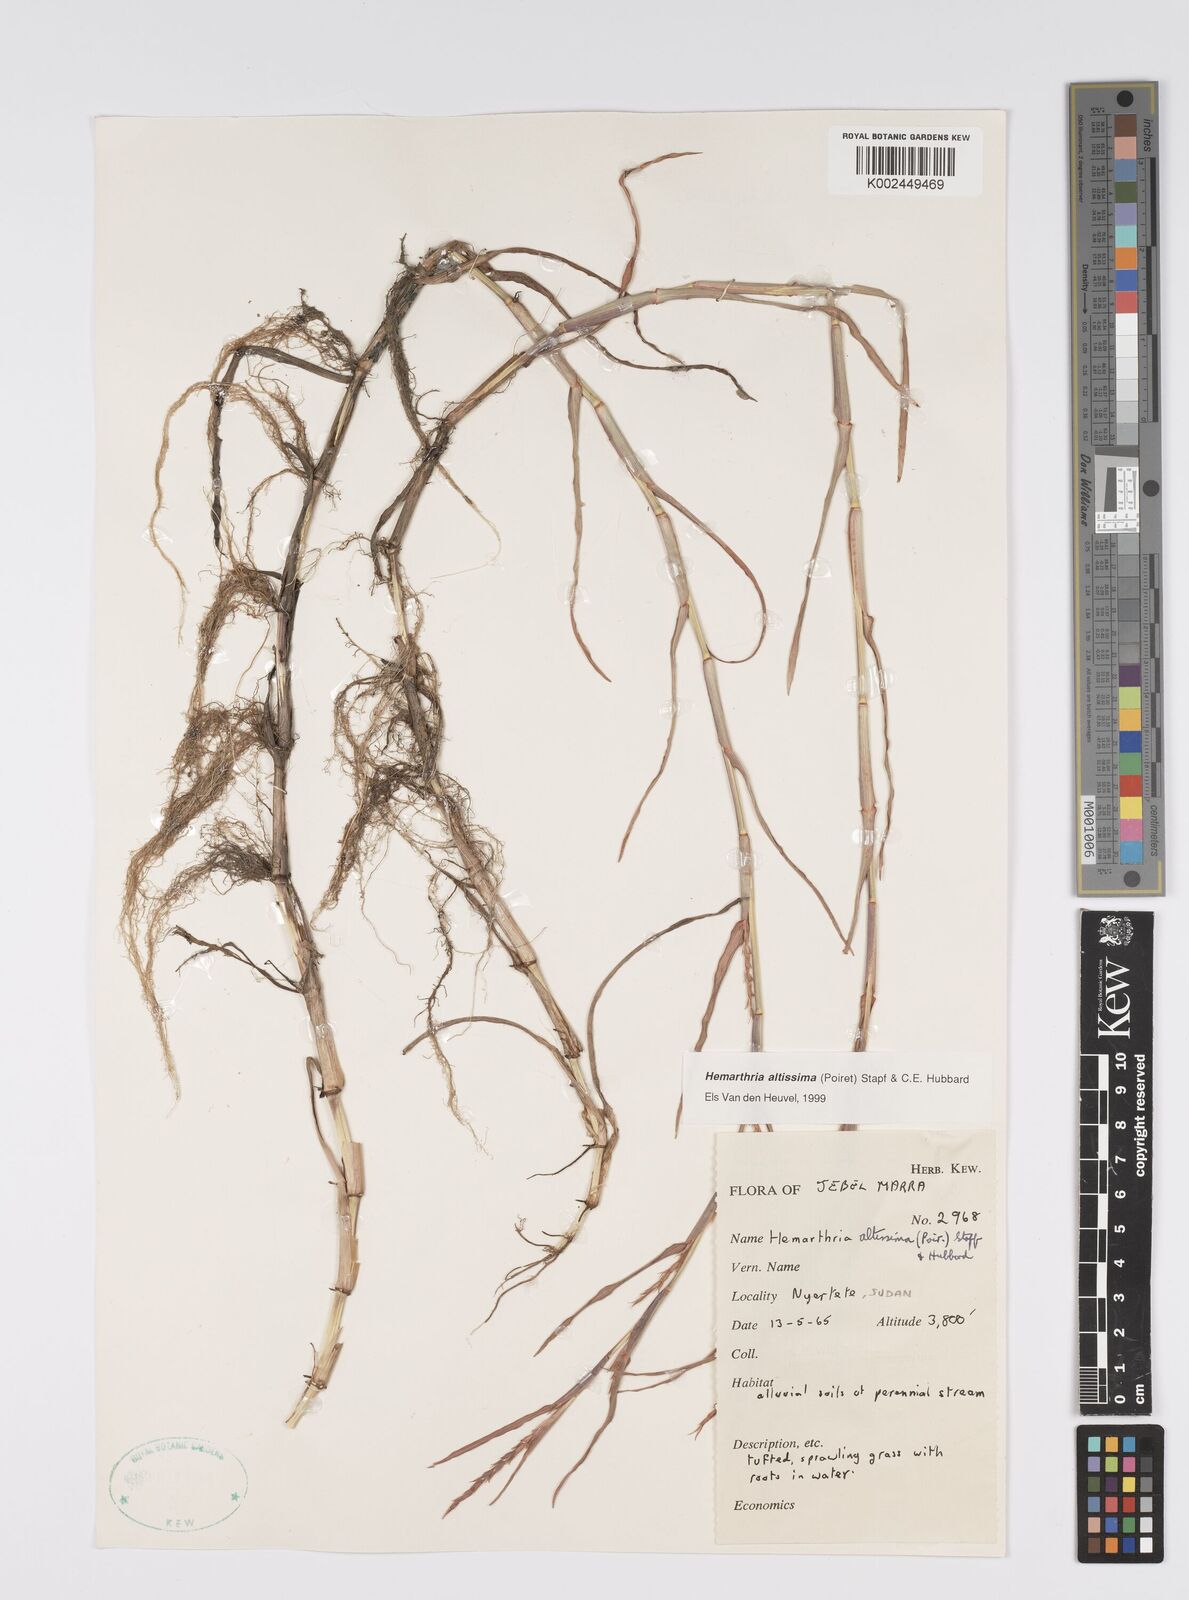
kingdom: Plantae
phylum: Tracheophyta
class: Liliopsida
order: Poales
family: Poaceae
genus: Hemarthria
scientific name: Hemarthria altissima
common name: African jointgrass
